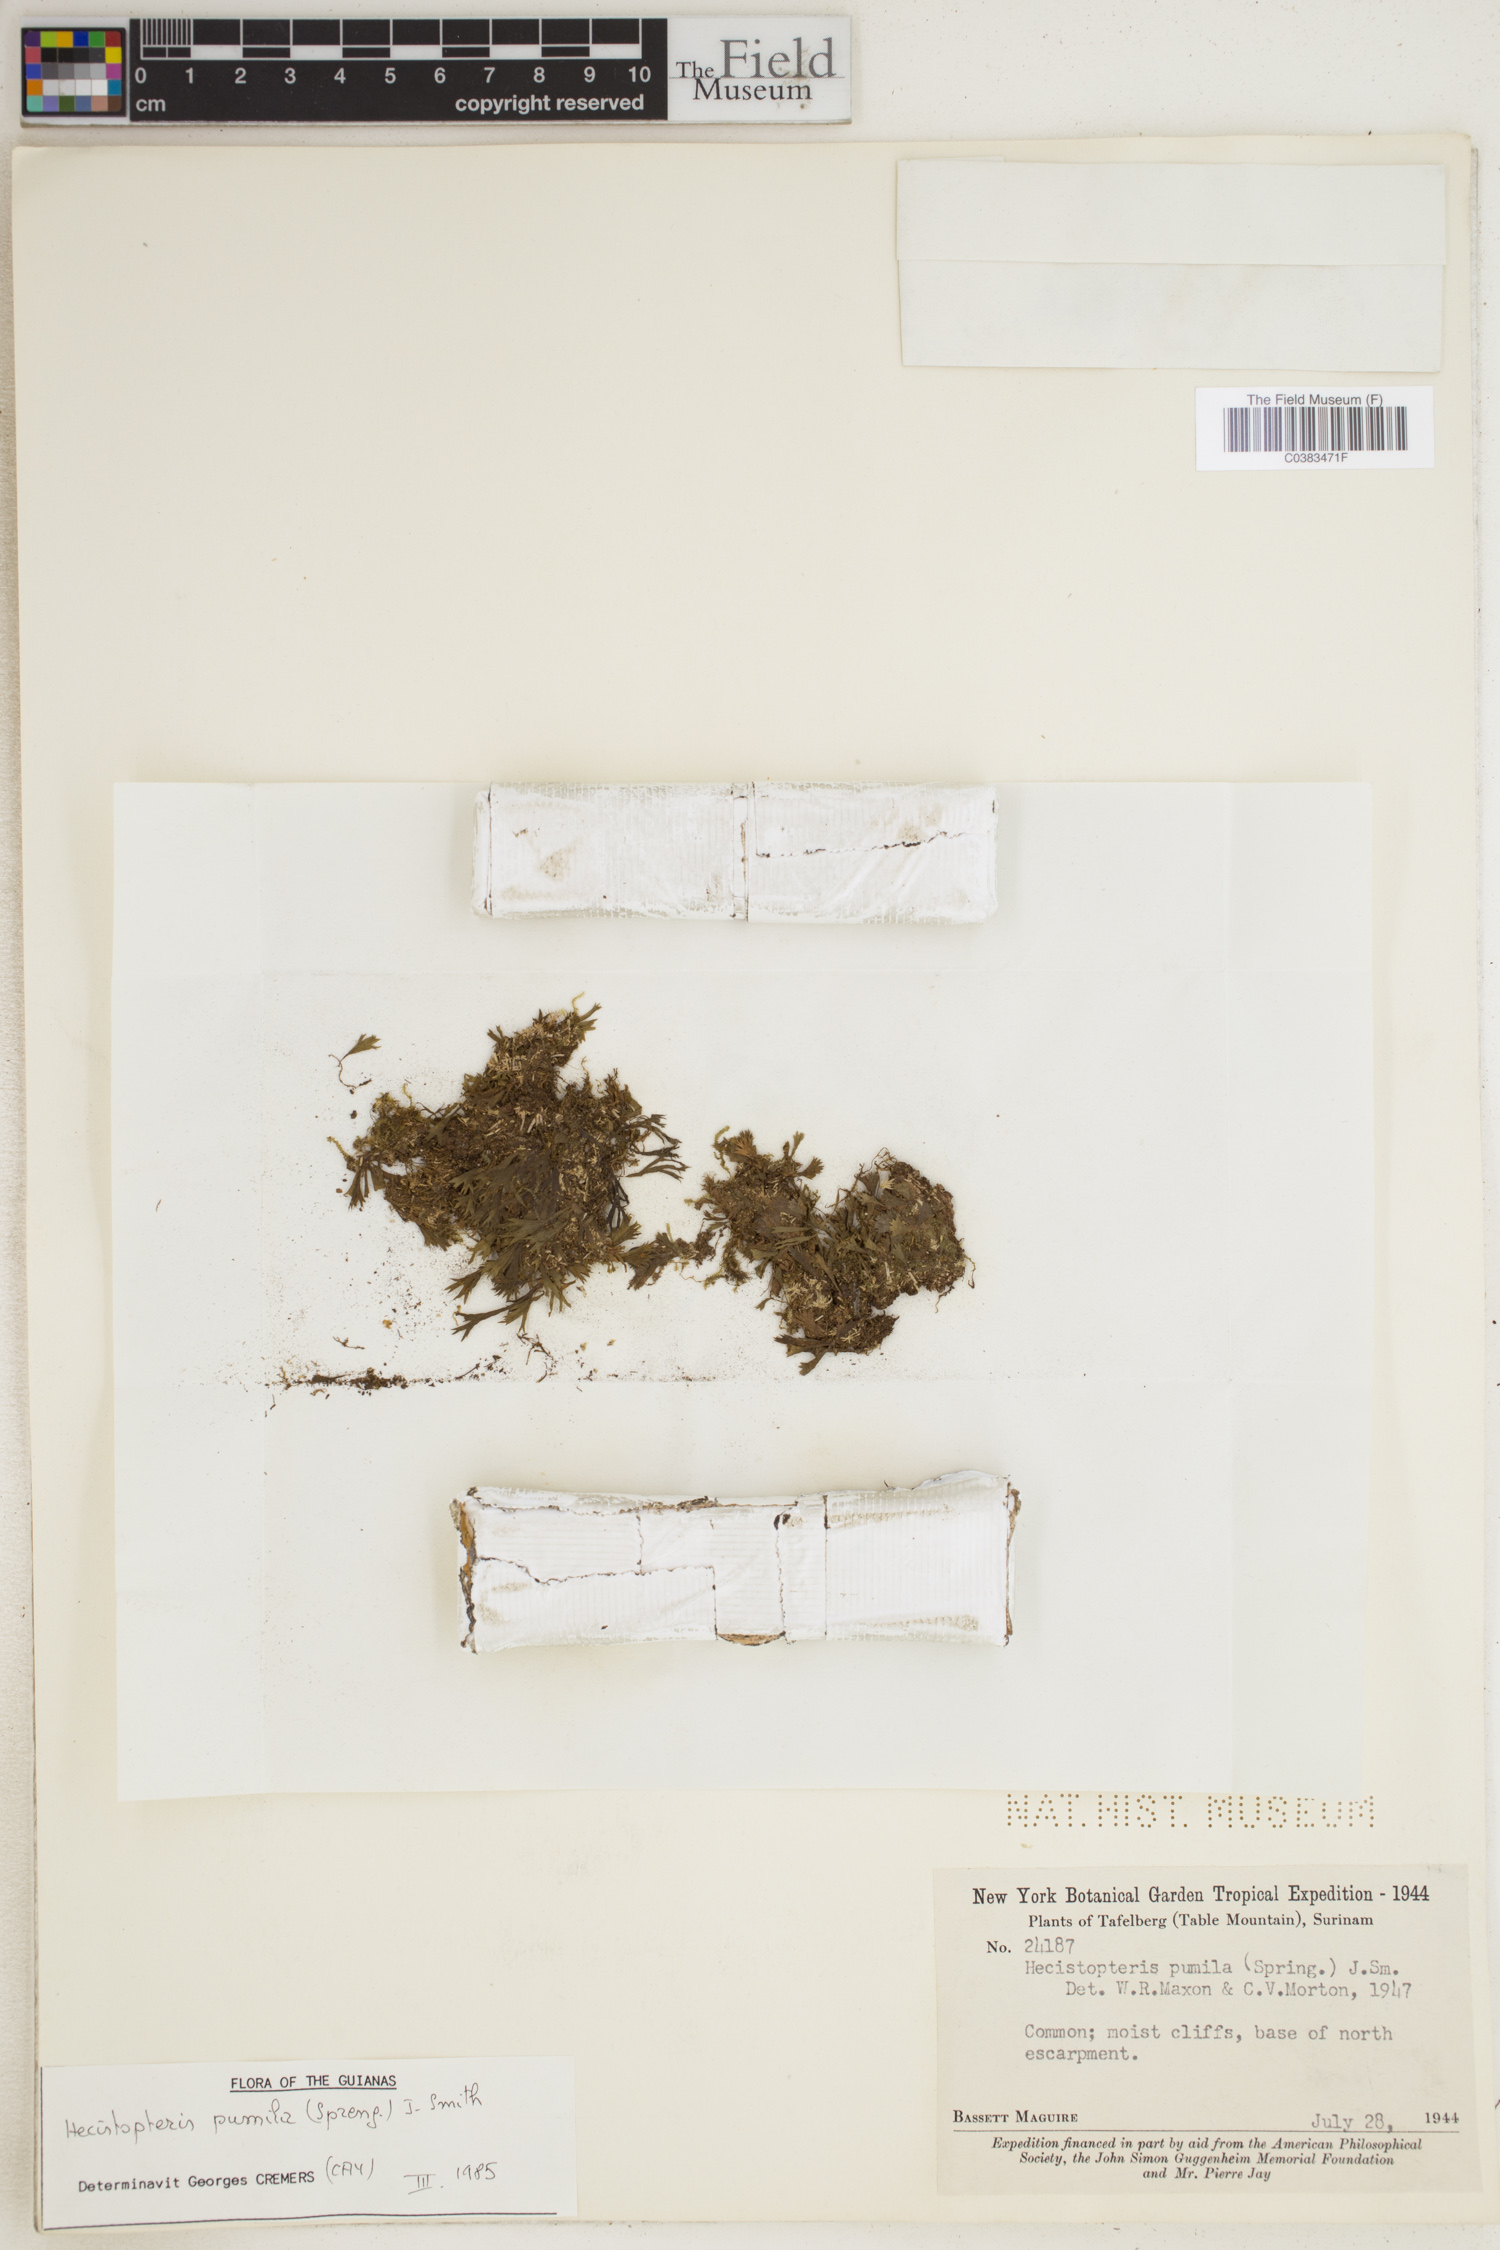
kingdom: Plantae
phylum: Tracheophyta
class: Polypodiopsida
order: Polypodiales
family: Pteridaceae
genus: Hecistopteris
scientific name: Hecistopteris pumila
